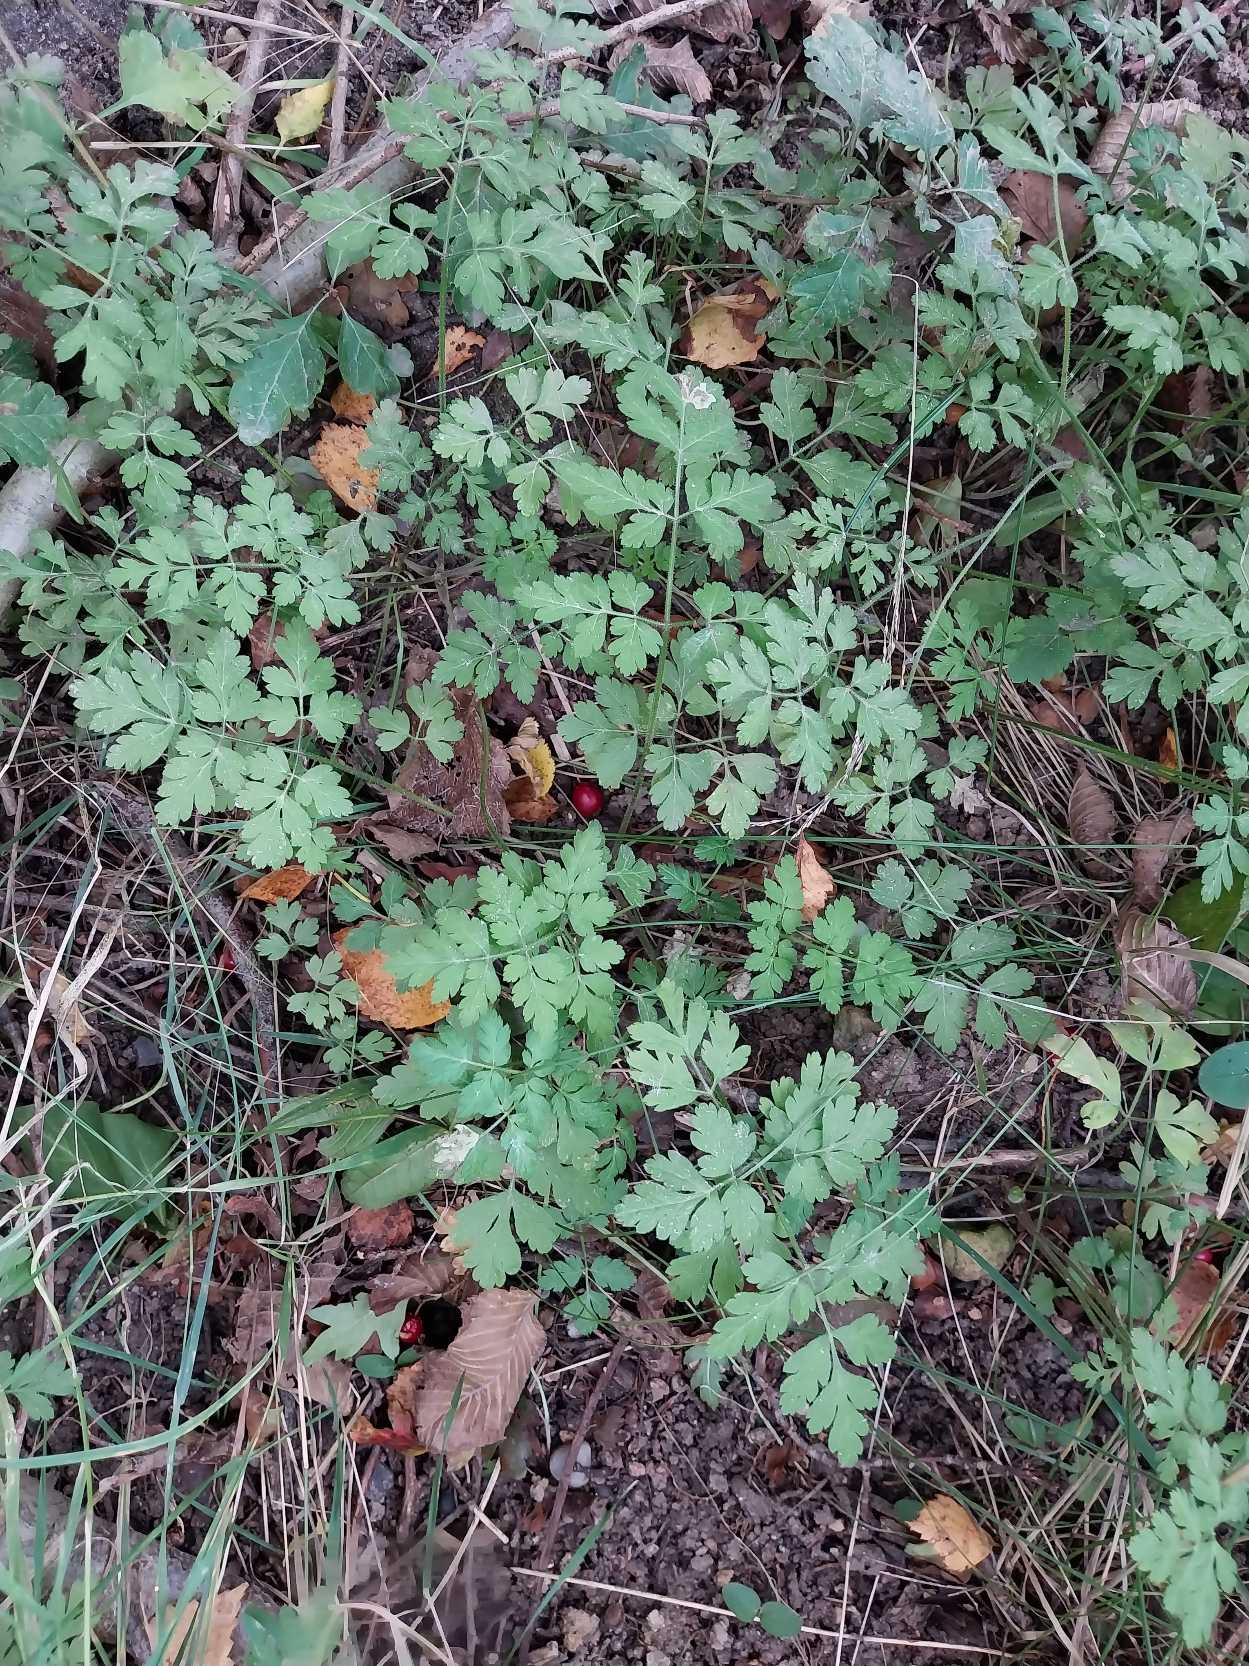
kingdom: Plantae
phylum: Tracheophyta
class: Magnoliopsida
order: Apiales
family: Apiaceae
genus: Chaerophyllum
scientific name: Chaerophyllum temulum
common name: Almindelig hulsvøb
